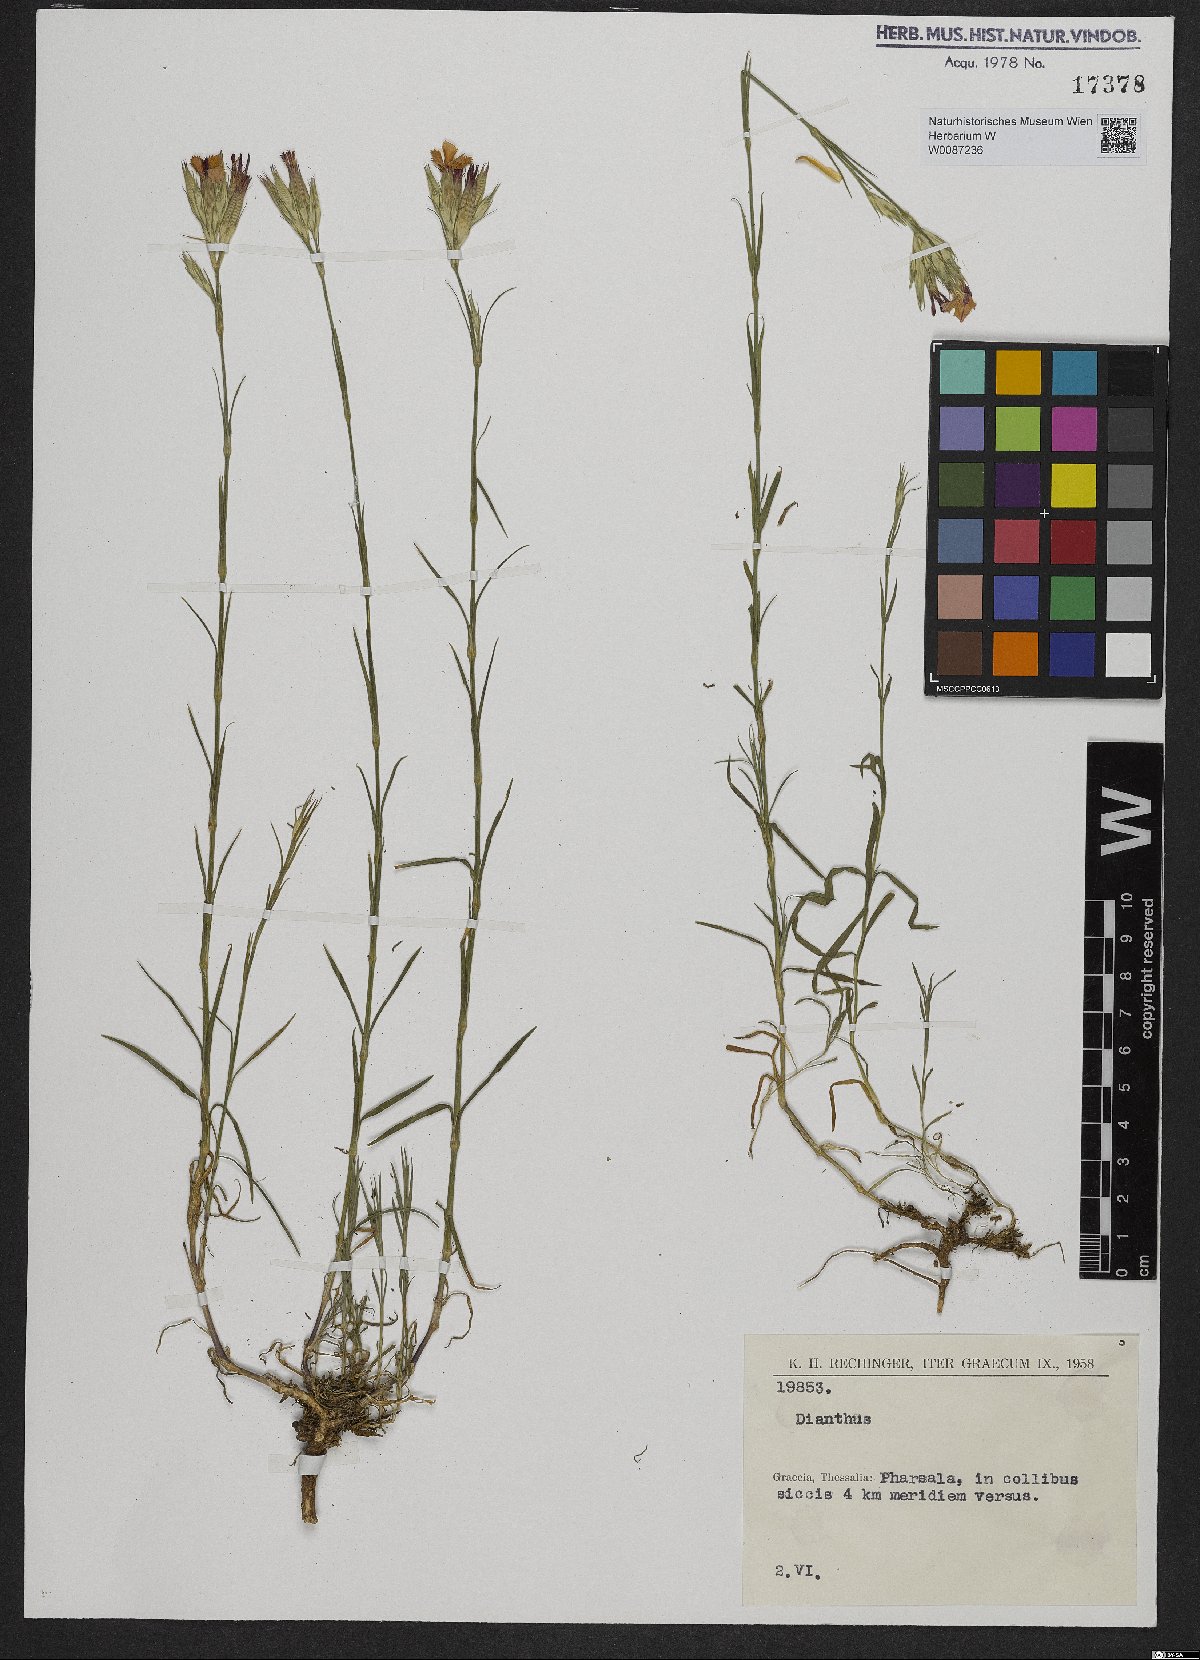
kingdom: Plantae
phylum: Tracheophyta
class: Magnoliopsida
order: Caryophyllales
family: Caryophyllaceae
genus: Dianthus
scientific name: Dianthus
